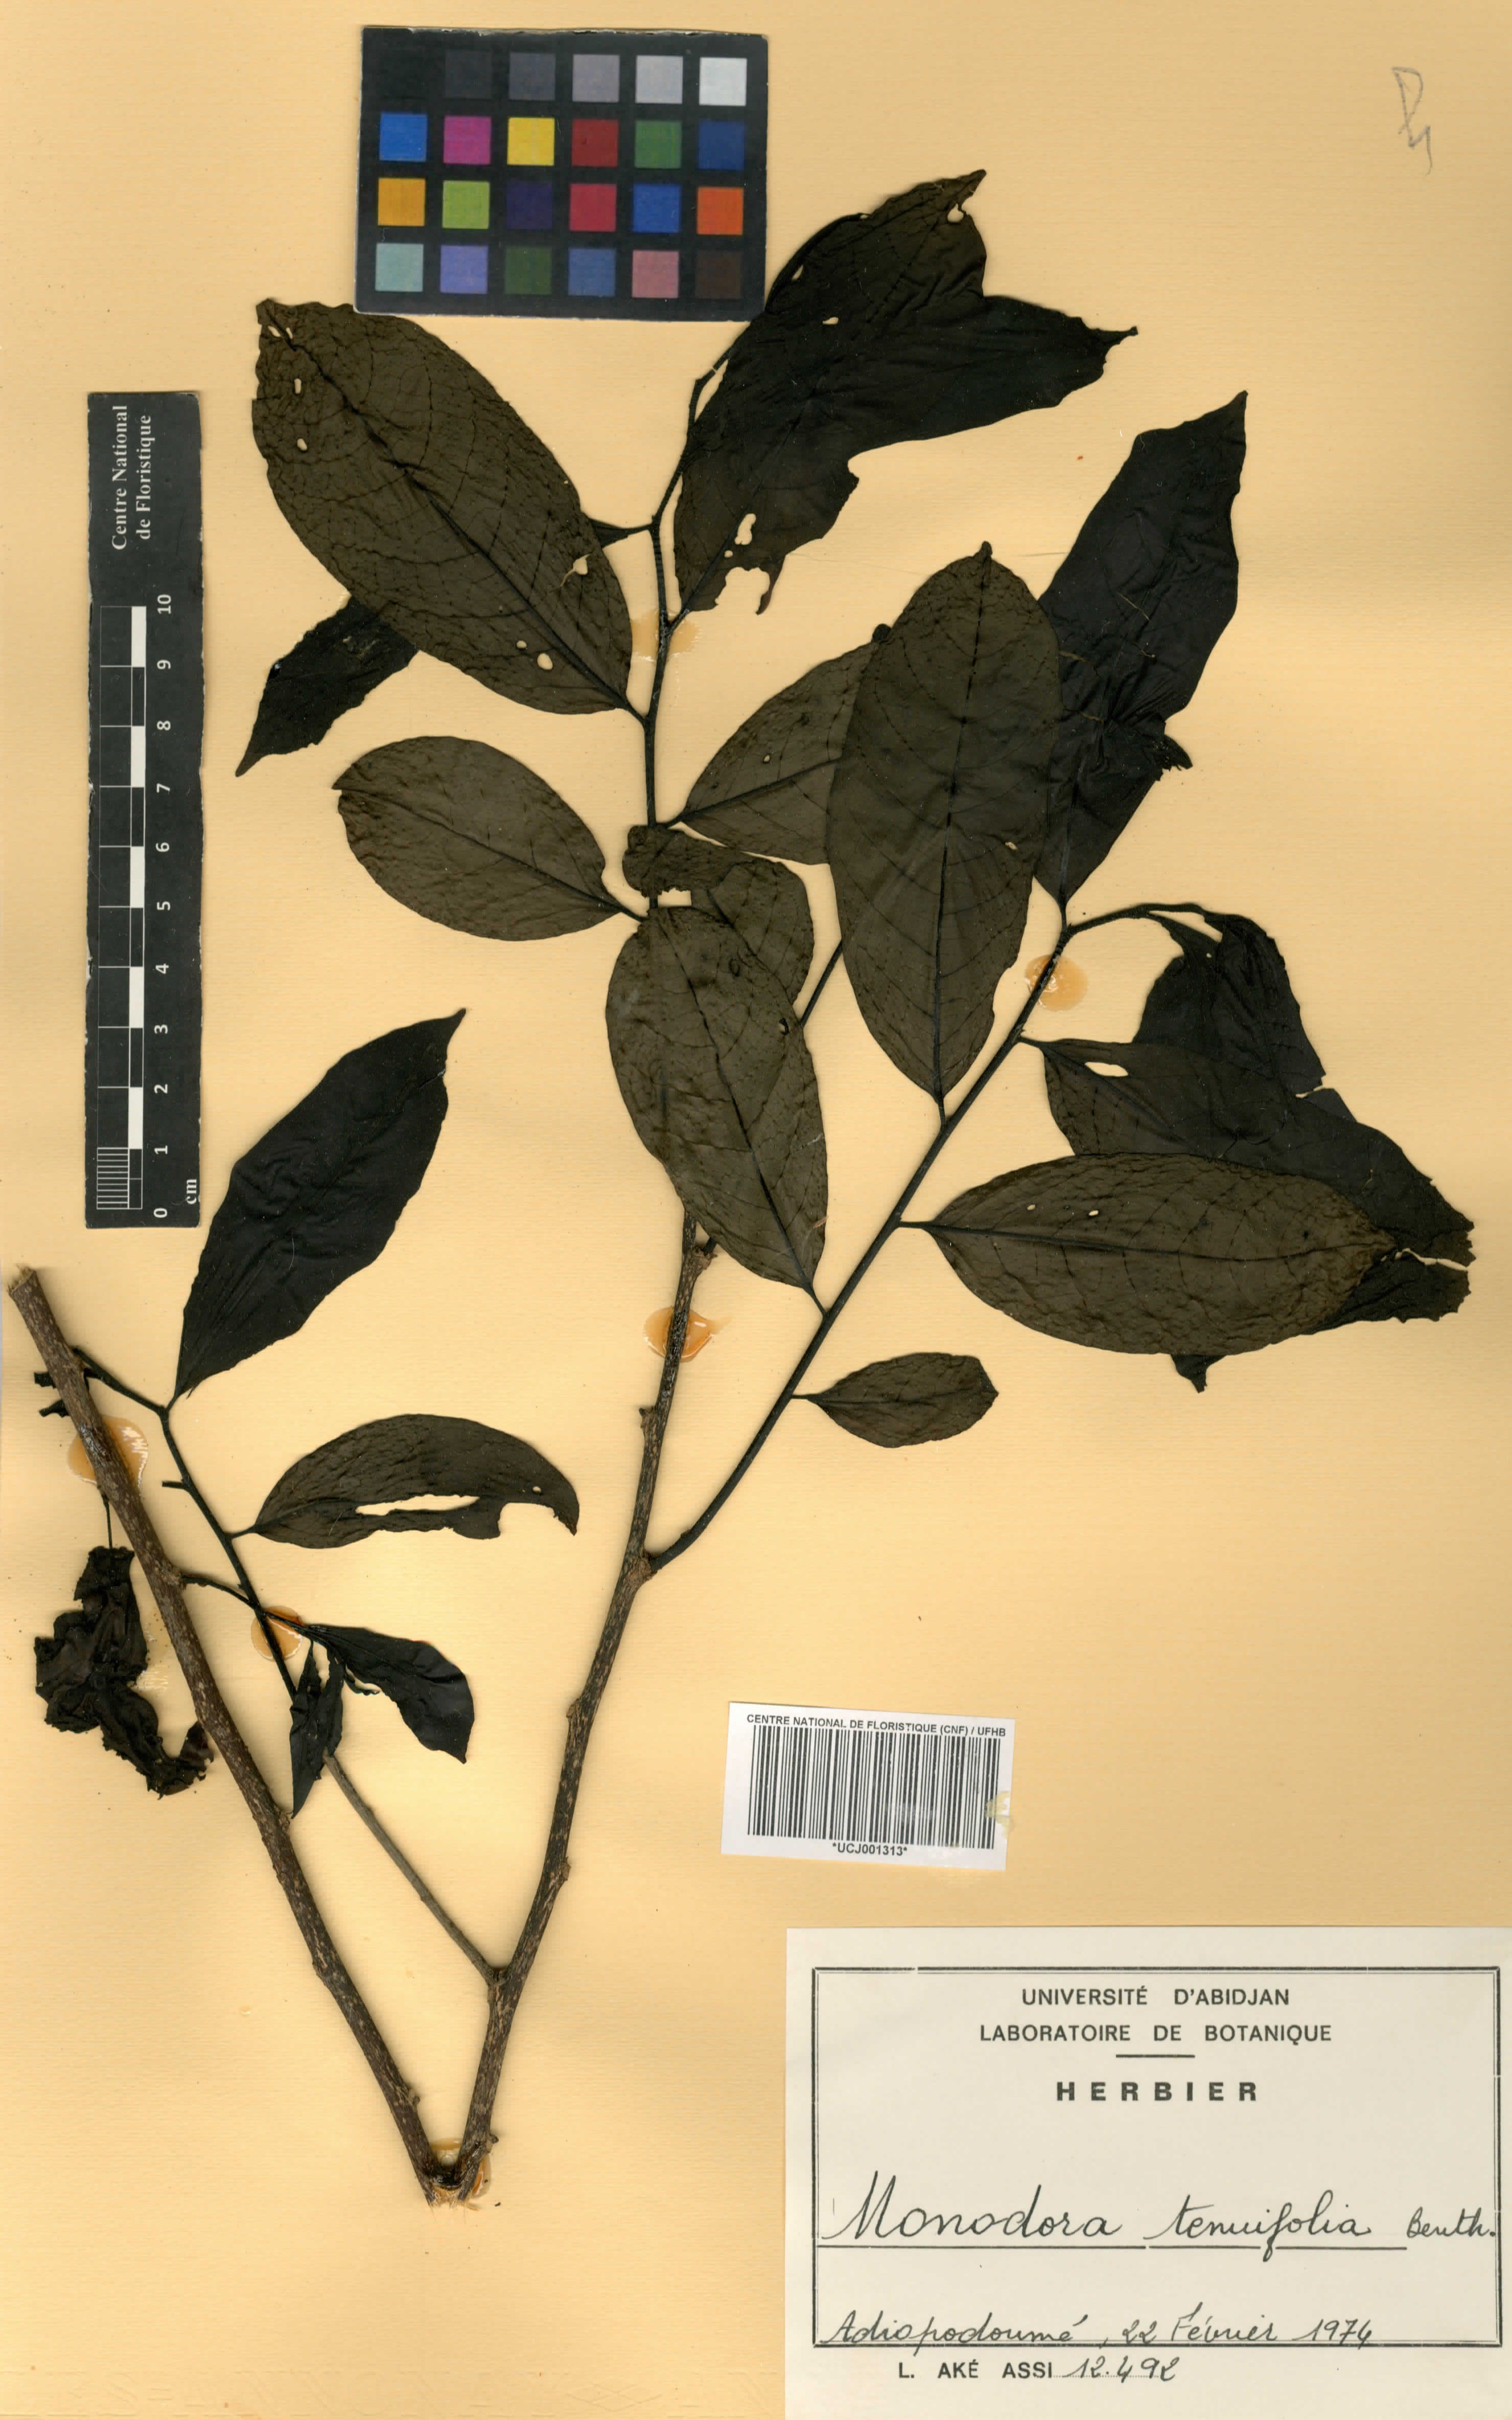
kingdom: Plantae
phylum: Tracheophyta
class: Magnoliopsida
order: Magnoliales
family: Annonaceae
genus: Monodora
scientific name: Monodora tenuifolia
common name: Orchidtree
